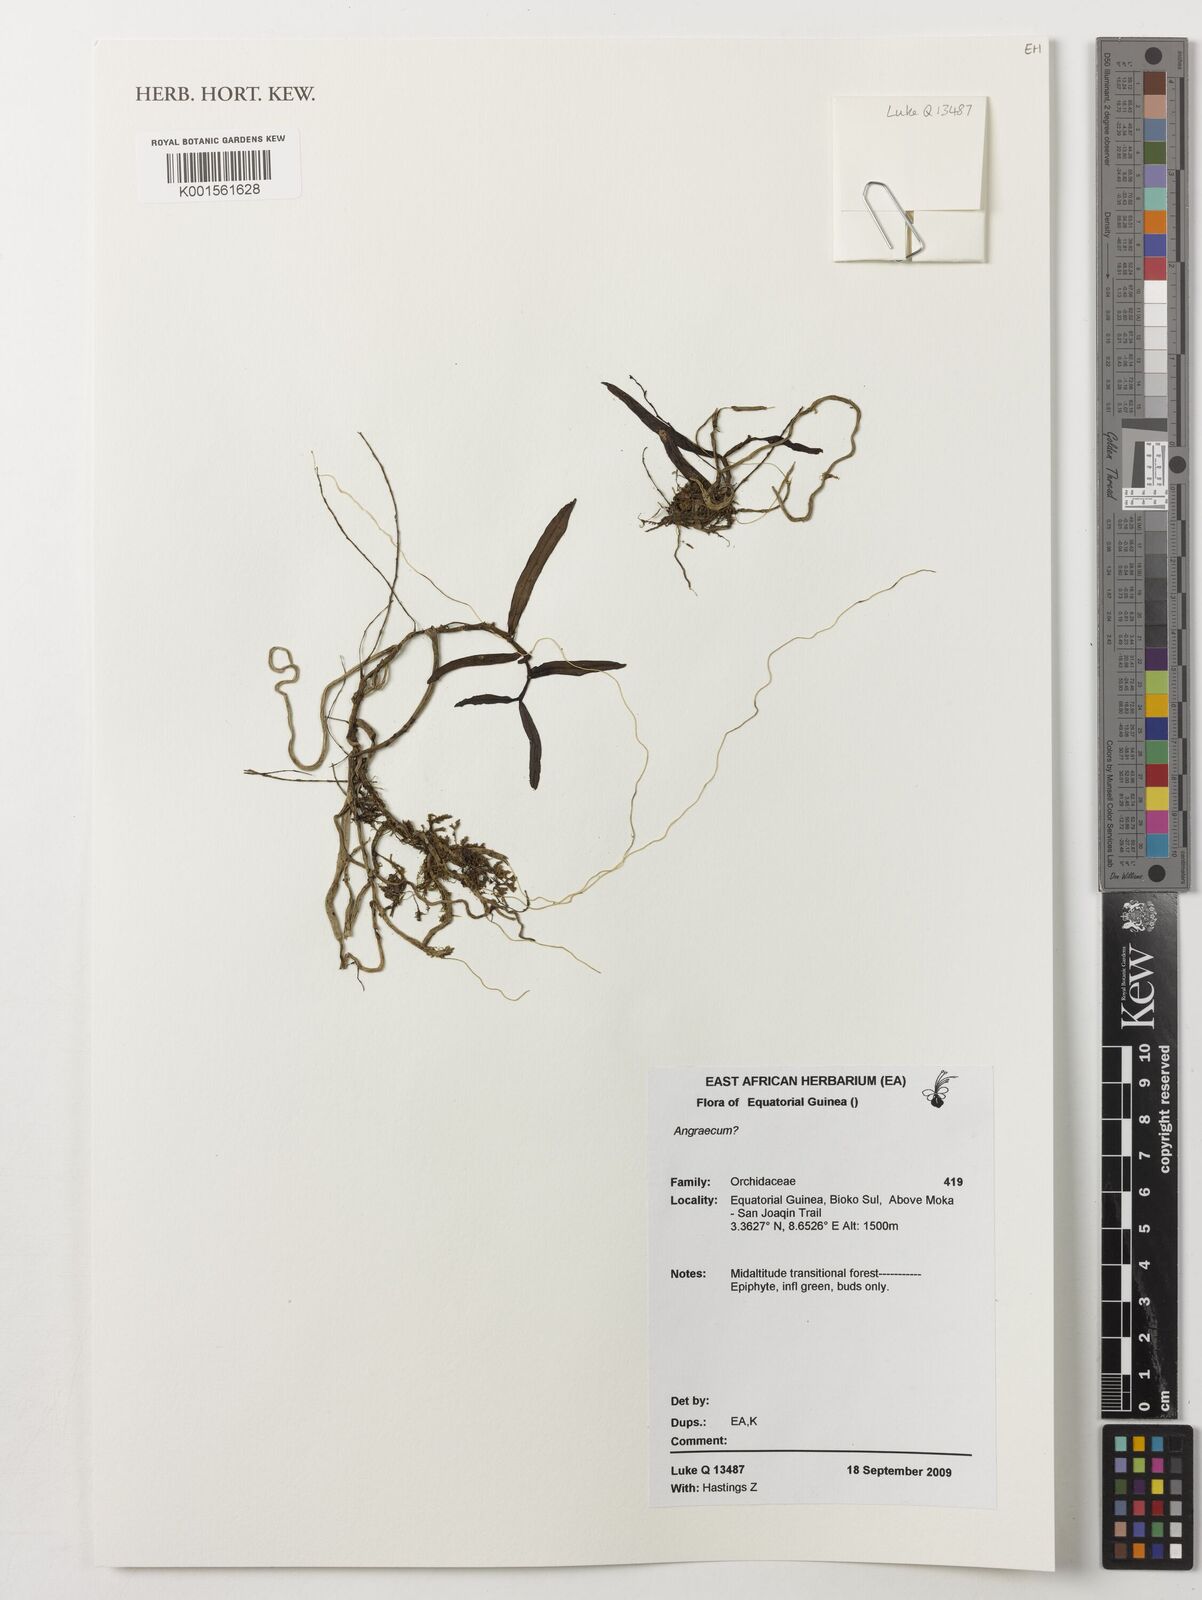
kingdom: Plantae
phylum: Tracheophyta
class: Liliopsida
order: Asparagales
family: Orchidaceae
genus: Angraecum
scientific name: Angraecum
